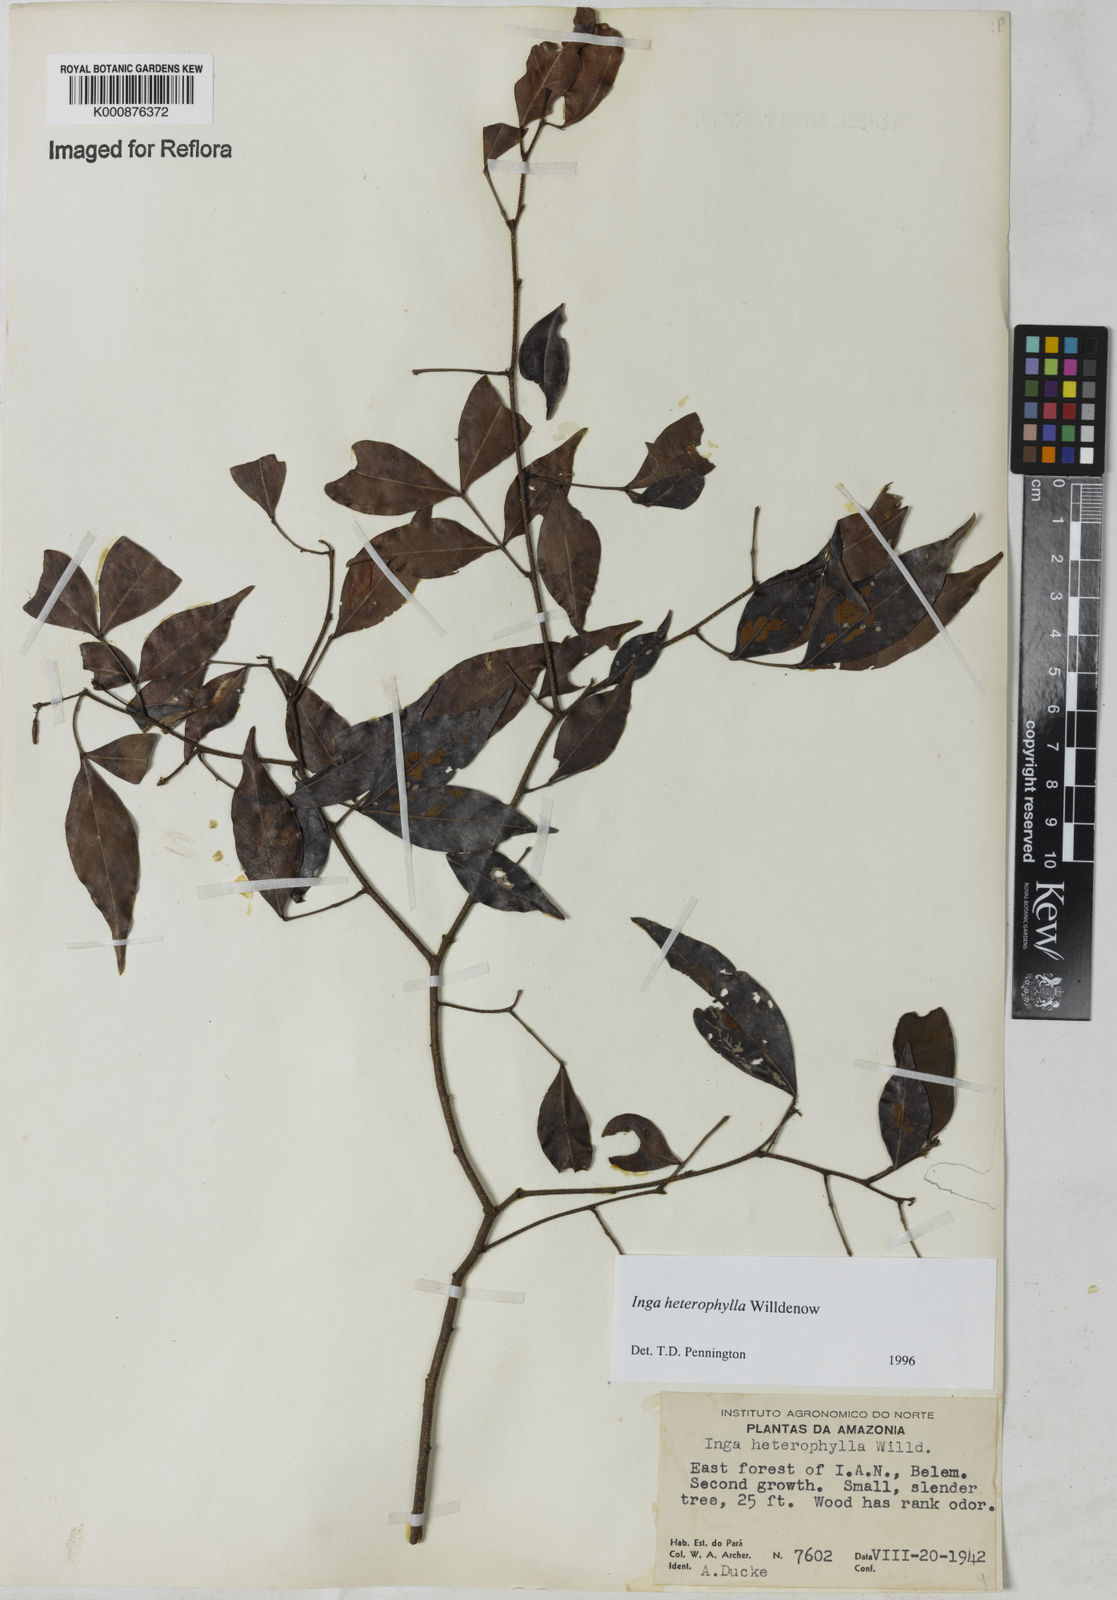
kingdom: Plantae
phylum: Tracheophyta
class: Magnoliopsida
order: Fabales
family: Fabaceae
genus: Inga
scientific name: Inga heterophylla
